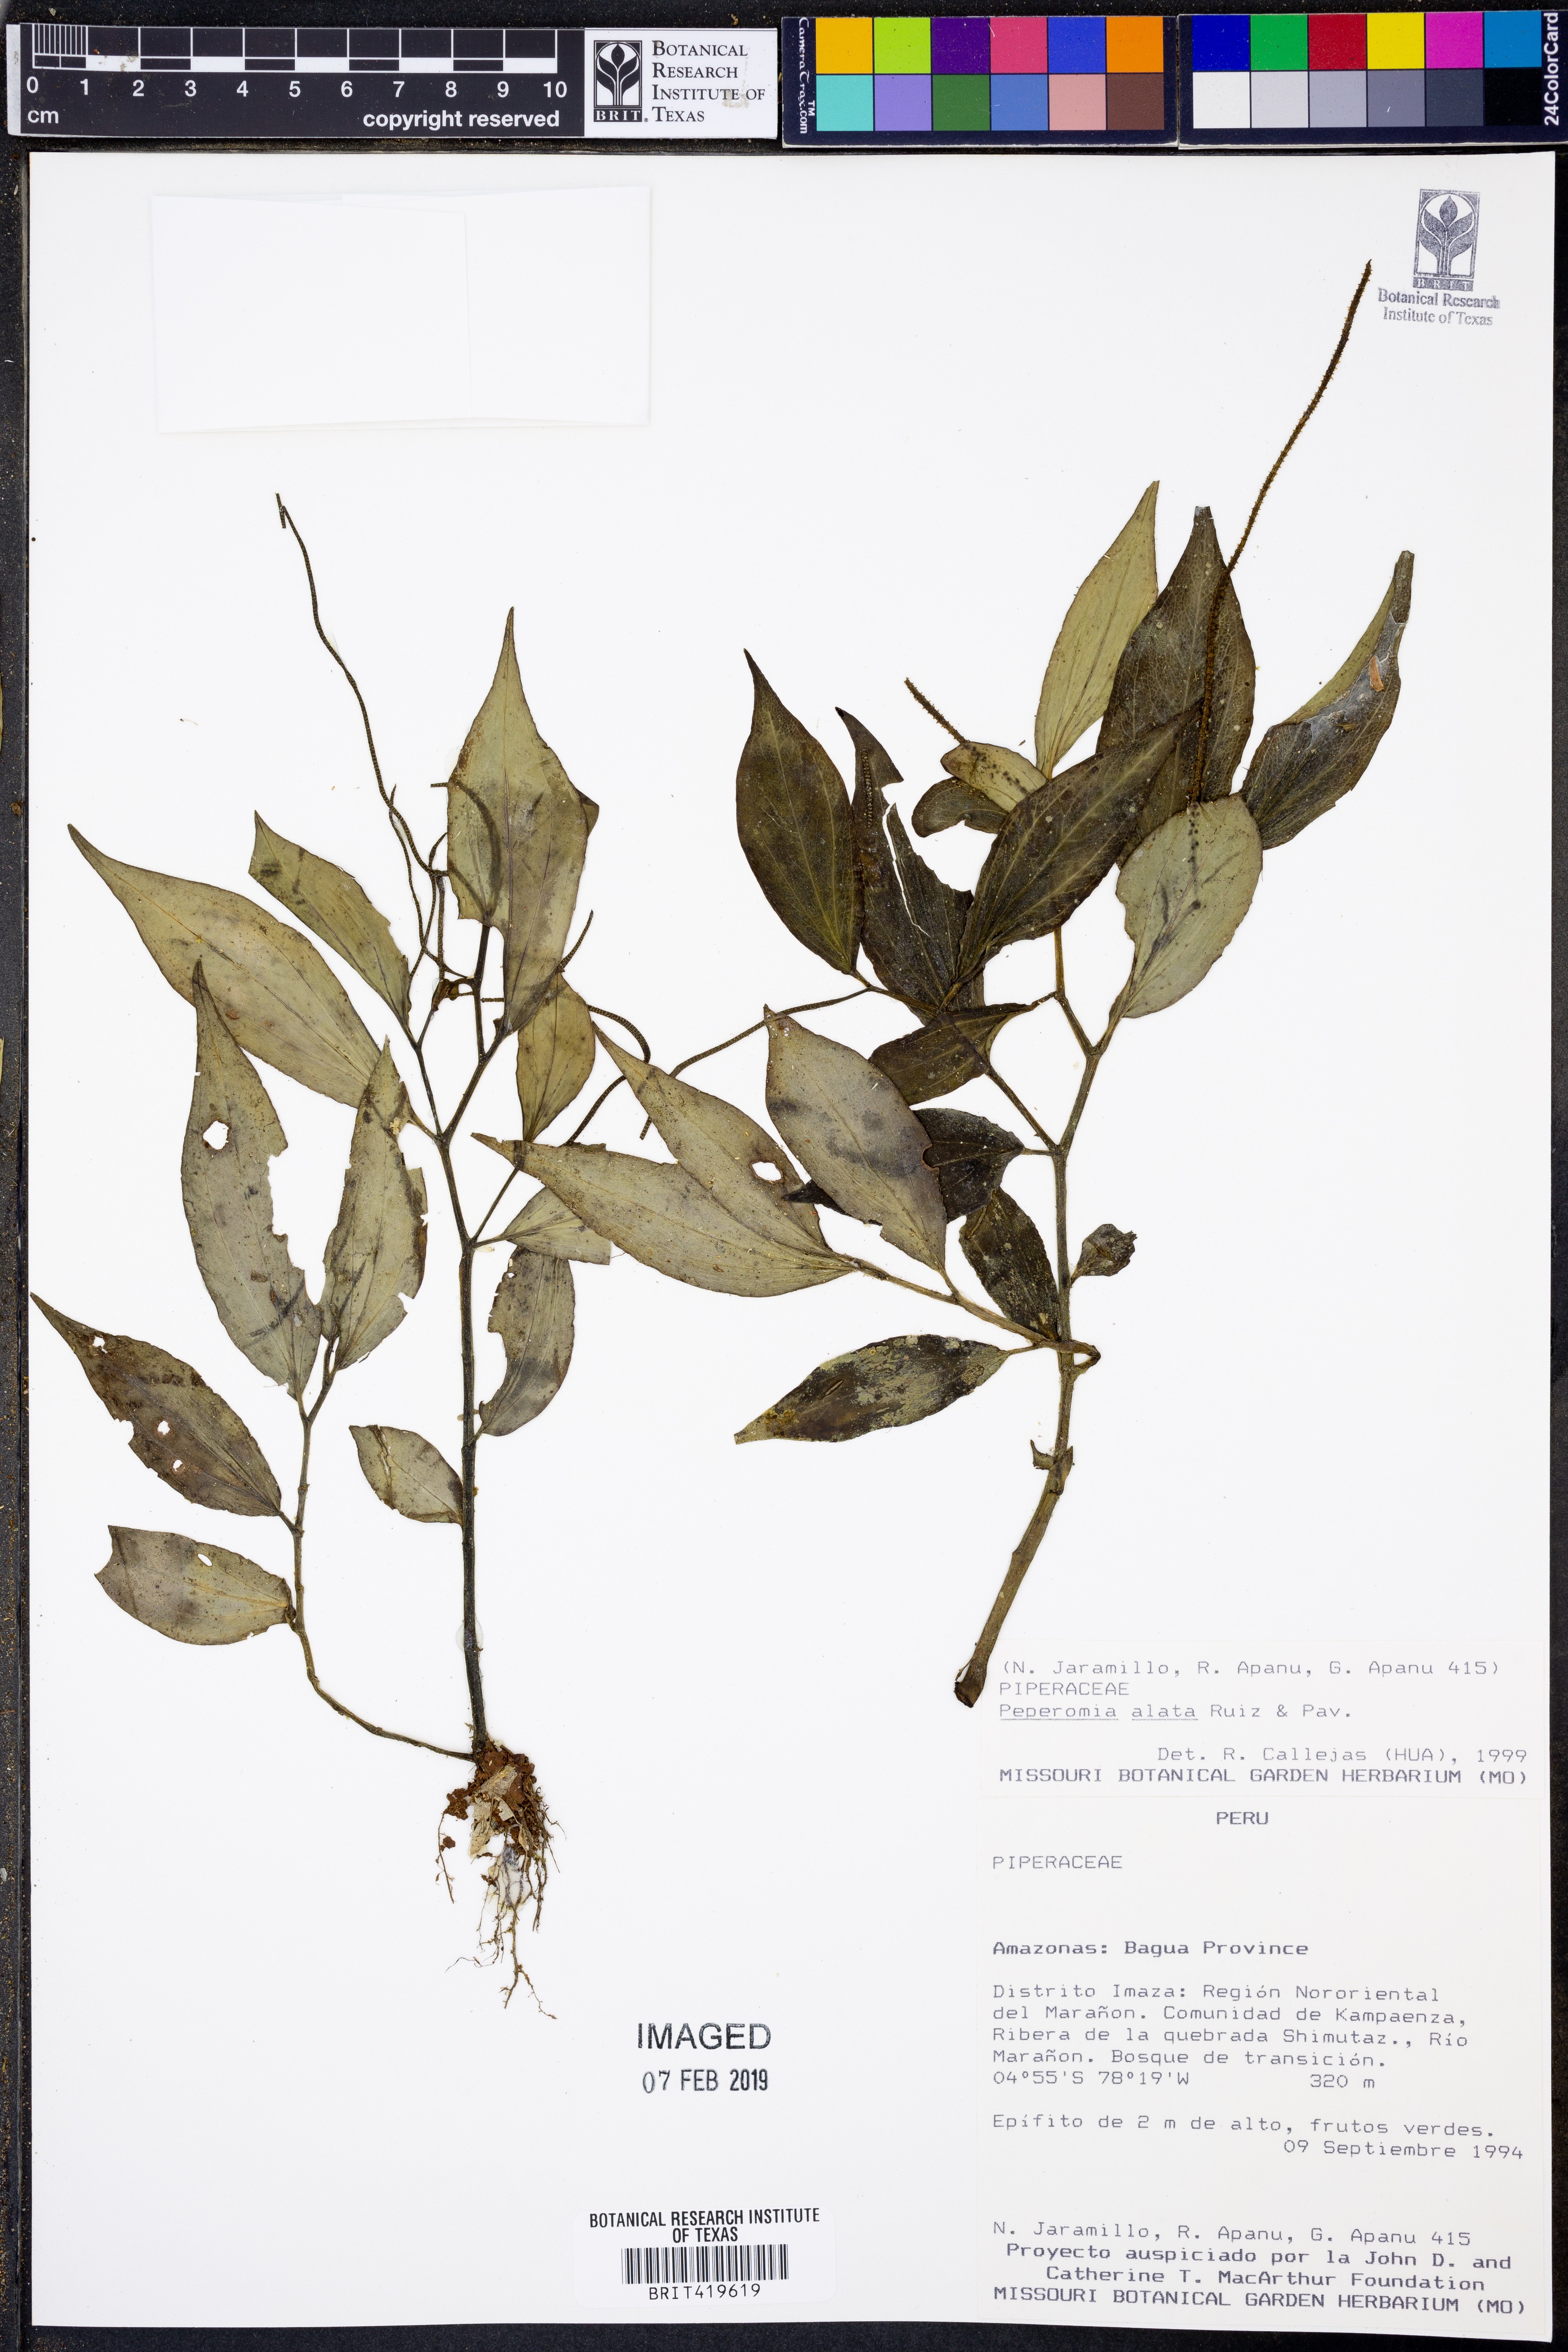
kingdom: Plantae
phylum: Tracheophyta
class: Magnoliopsida
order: Piperales
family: Piperaceae
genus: Peperomia
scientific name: Peperomia alata
